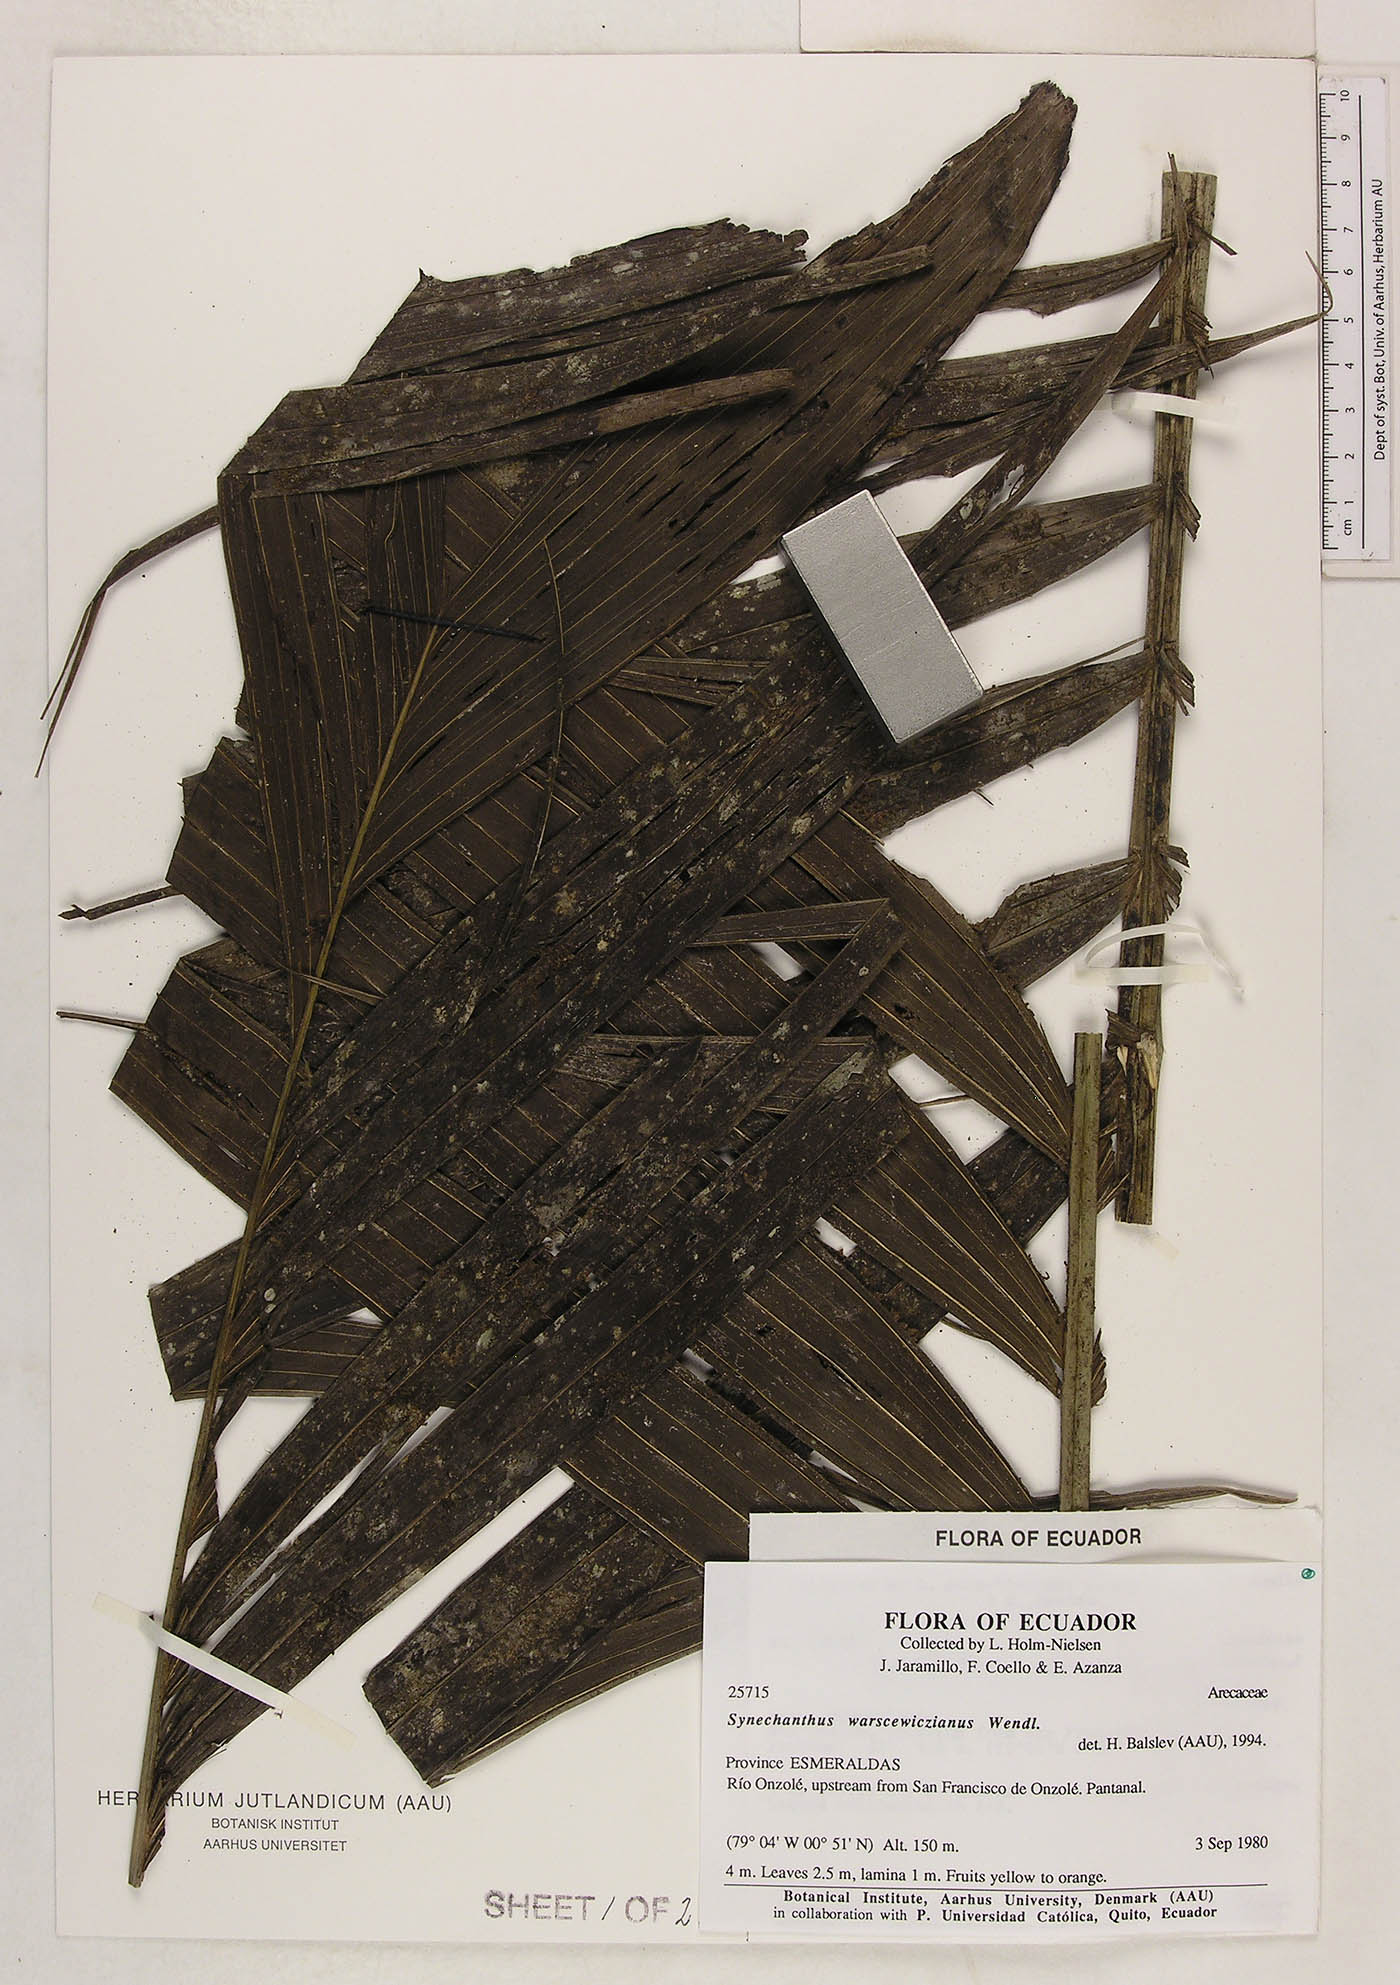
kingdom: Plantae
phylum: Tracheophyta
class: Liliopsida
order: Arecales
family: Arecaceae
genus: Synechanthus
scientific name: Synechanthus warscewiczianus
